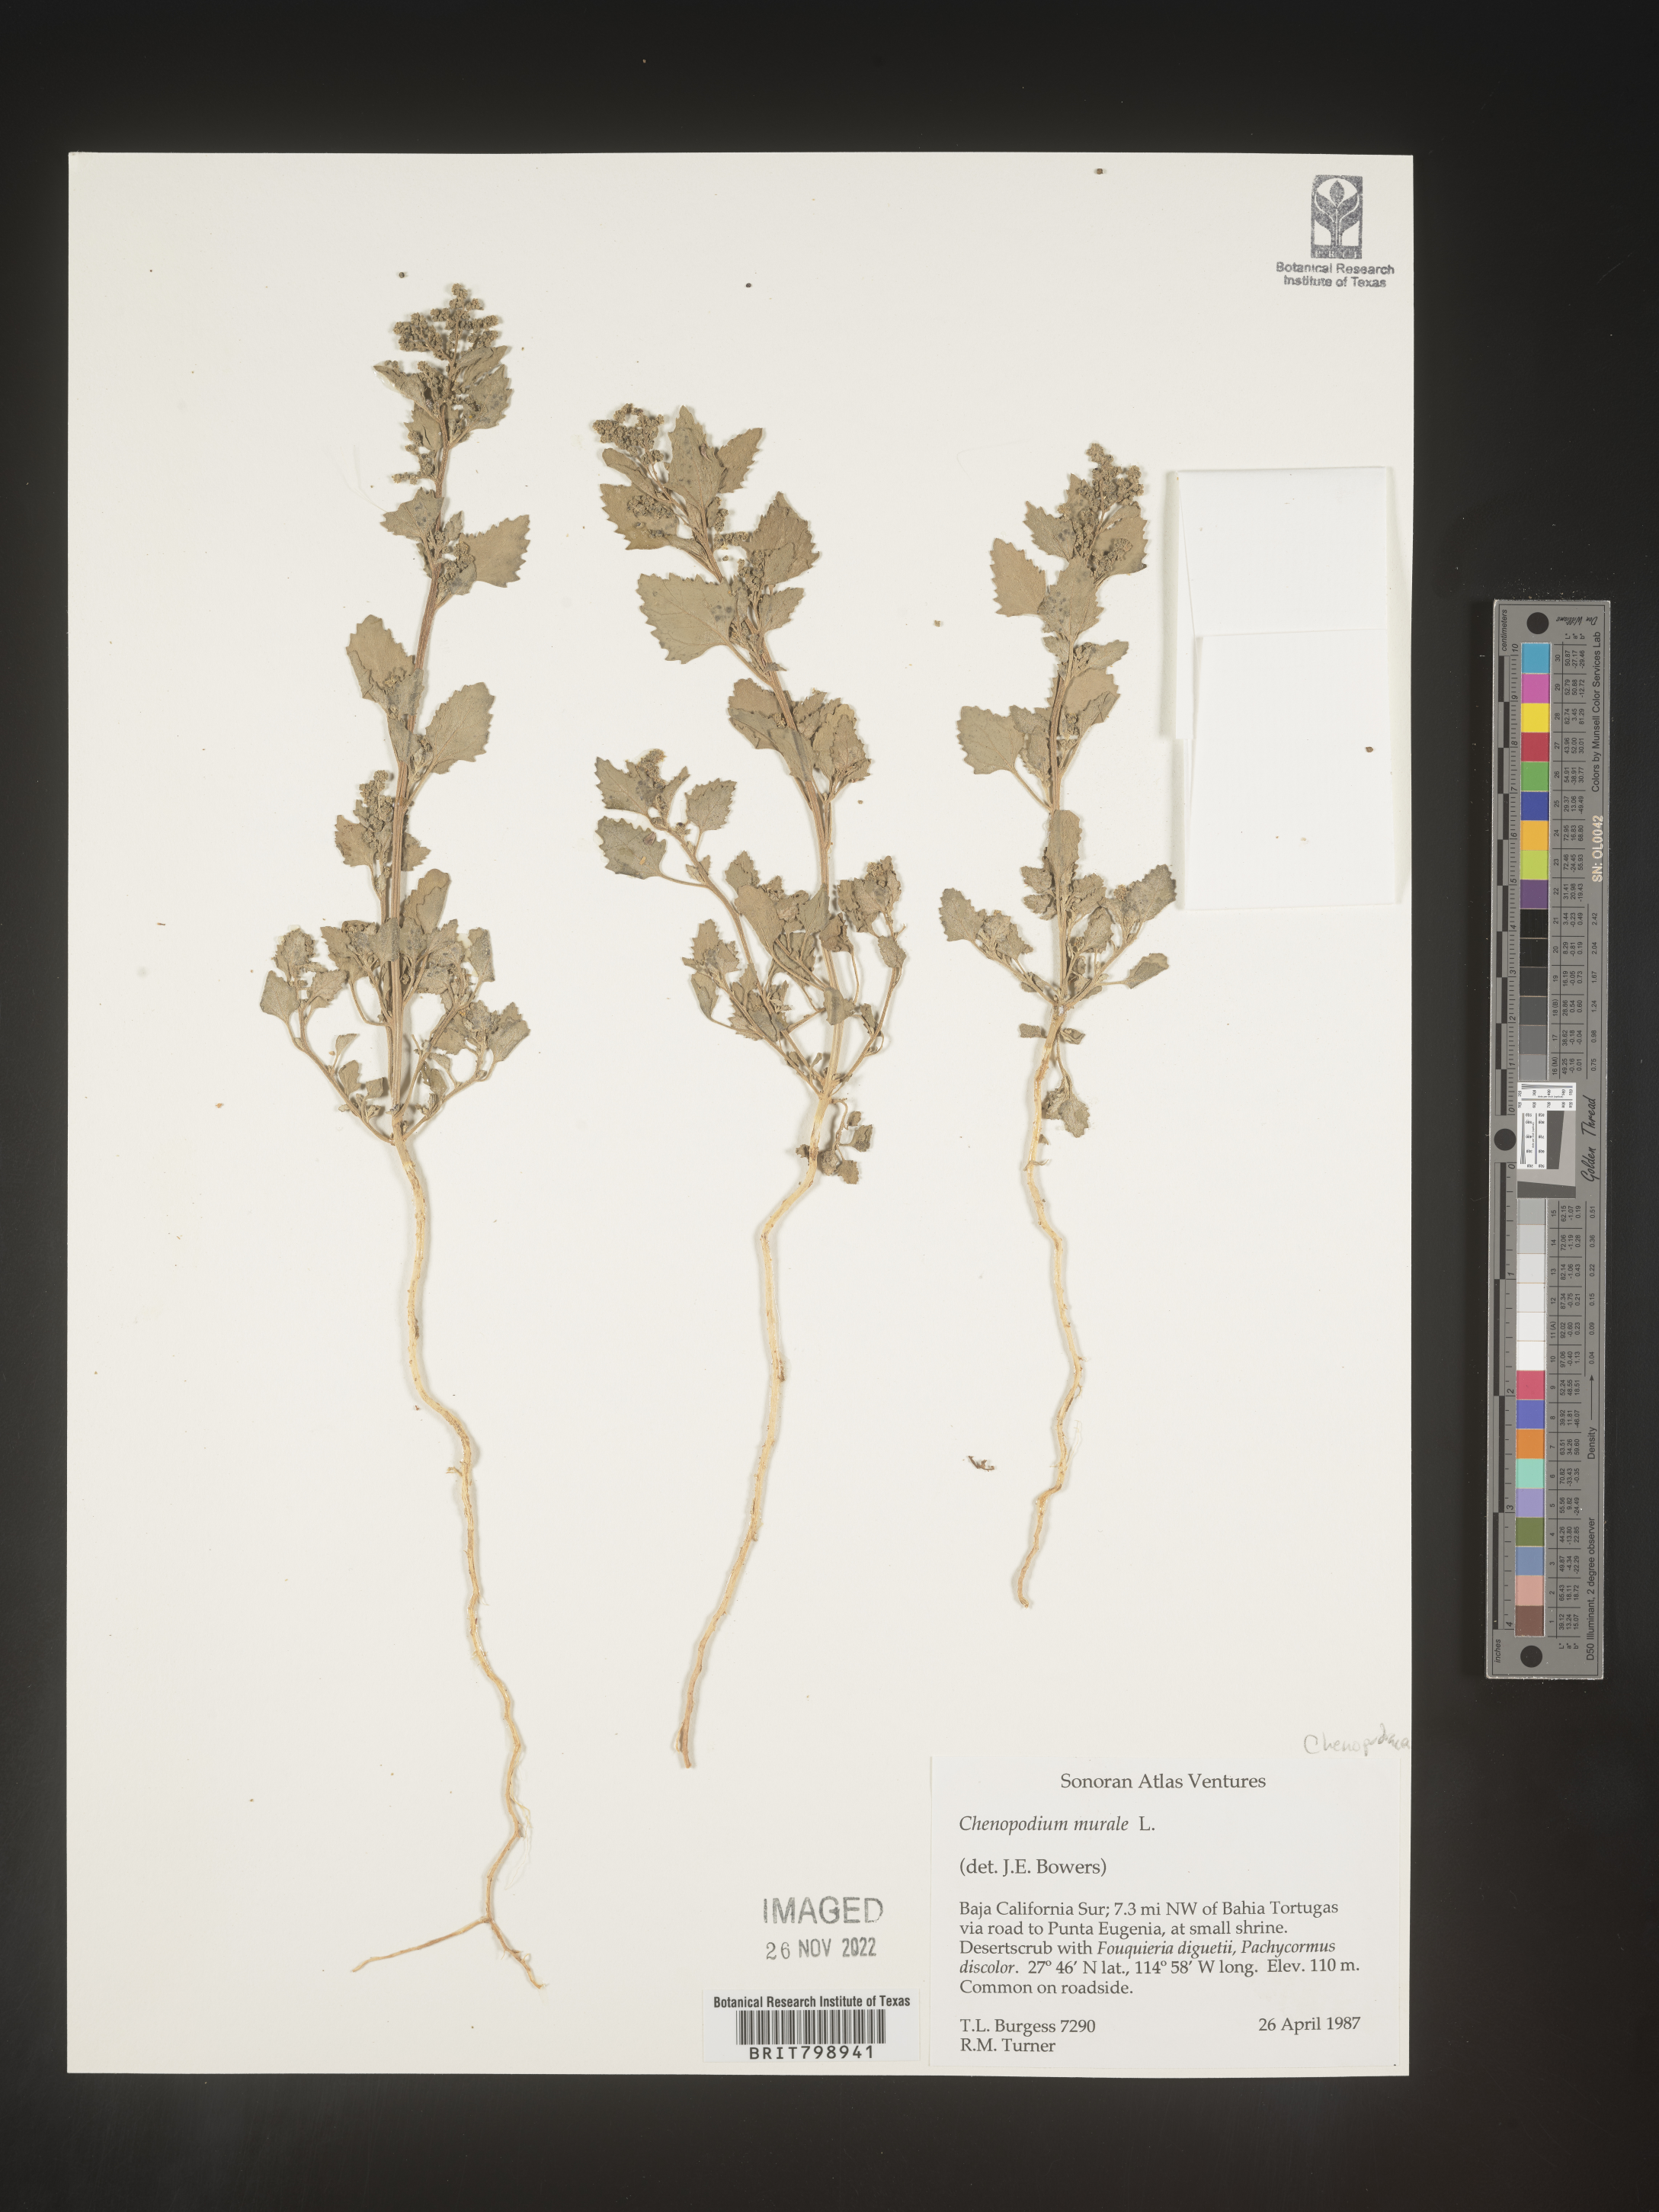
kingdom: Plantae
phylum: Tracheophyta
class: Magnoliopsida
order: Caryophyllales
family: Amaranthaceae
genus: Chenopodiastrum
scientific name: Chenopodiastrum murale
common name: Sowbane
